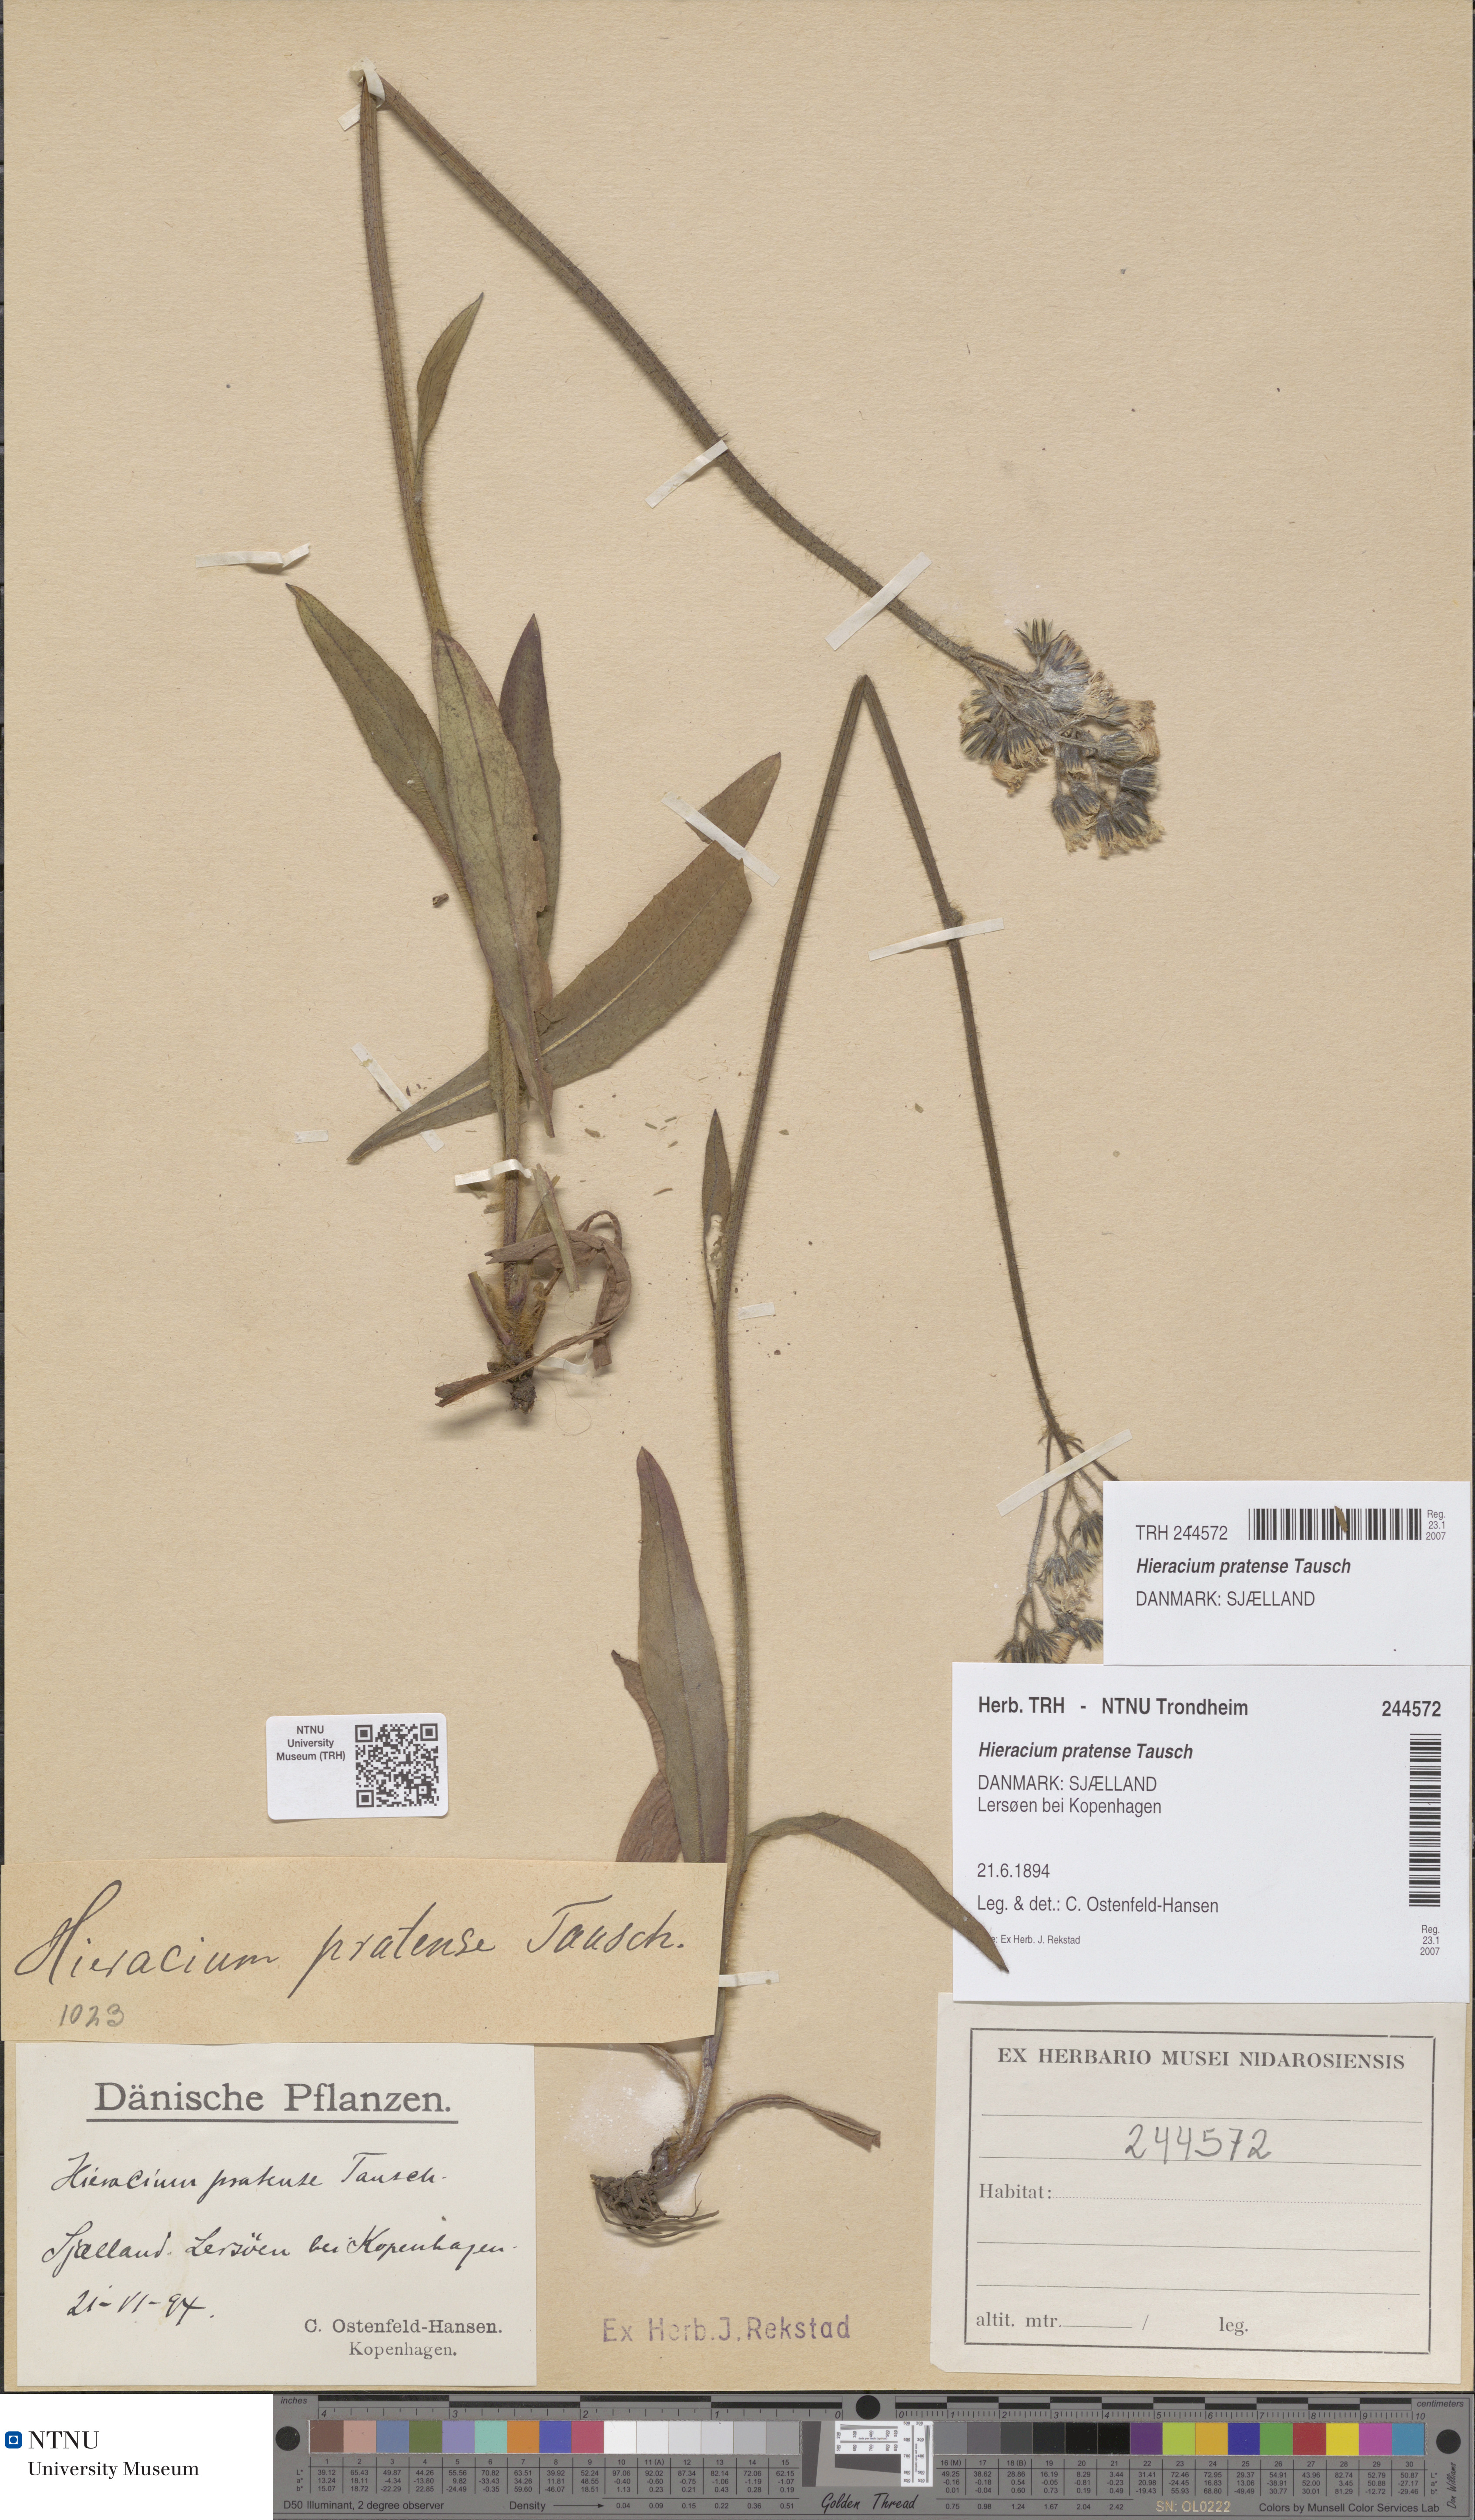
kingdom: Plantae
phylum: Tracheophyta
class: Magnoliopsida
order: Asterales
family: Asteraceae
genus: Pilosella
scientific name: Pilosella caespitosa
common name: Yellow fox-and-cubs
